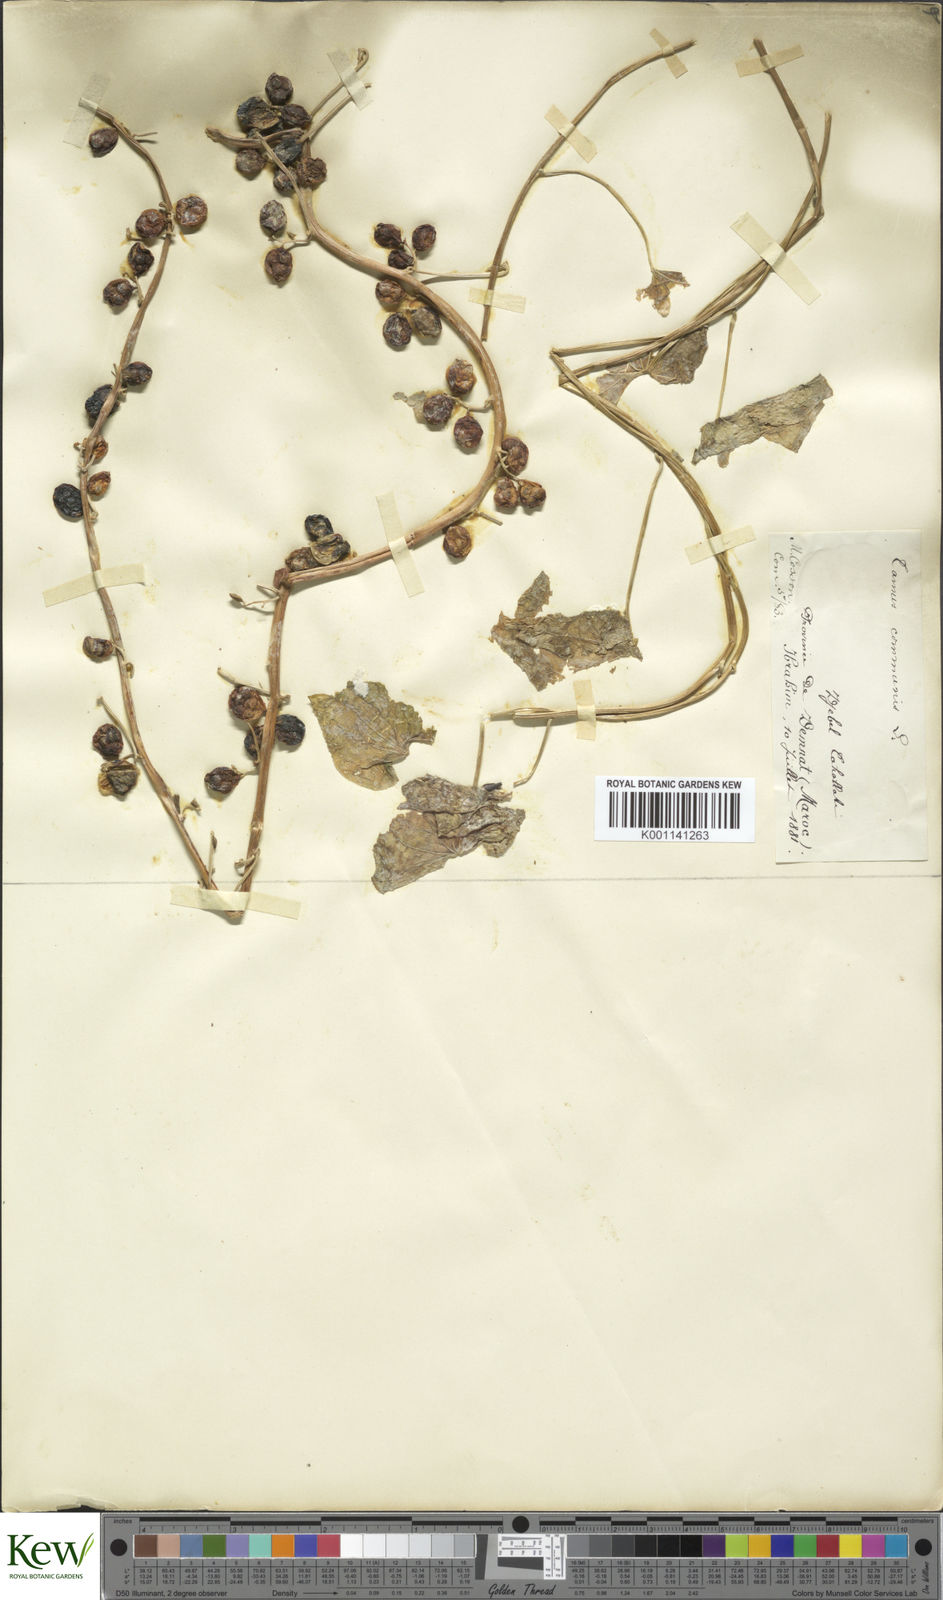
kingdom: Plantae
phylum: Tracheophyta
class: Liliopsida
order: Dioscoreales
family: Dioscoreaceae
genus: Dioscorea
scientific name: Dioscorea communis
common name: Black-bindweed
